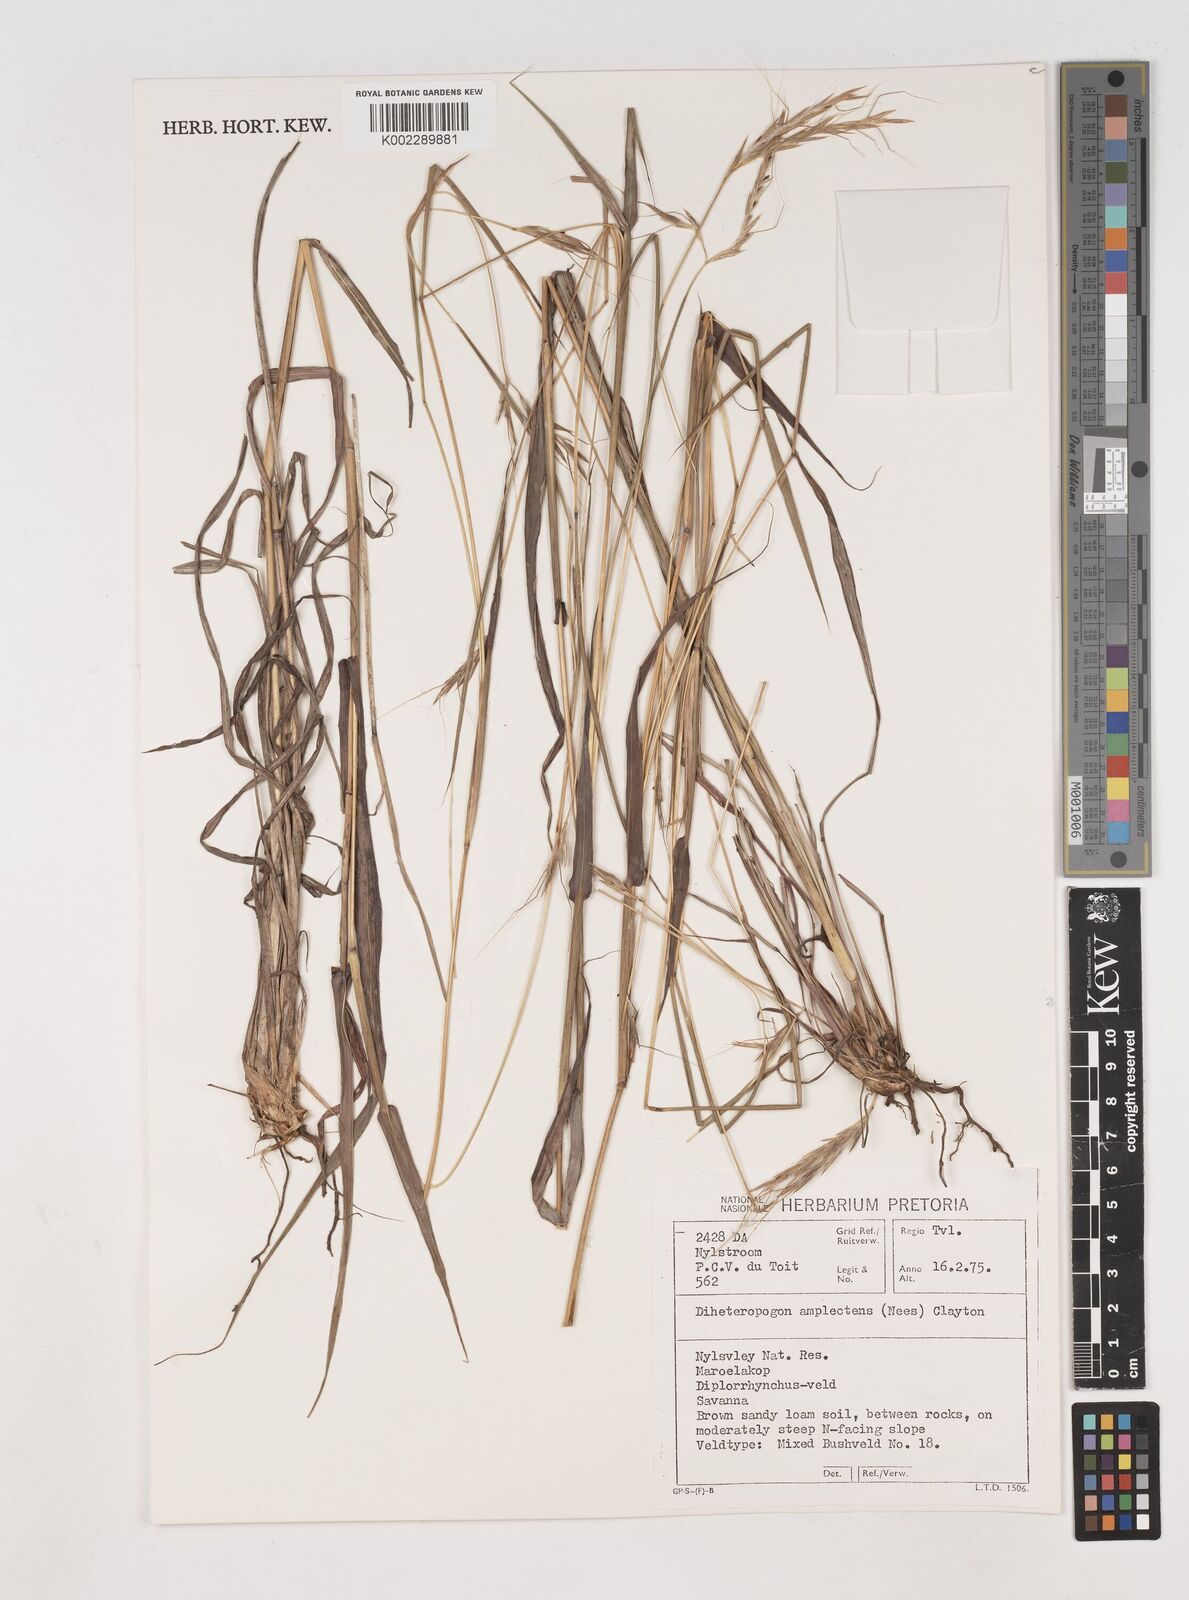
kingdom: Plantae
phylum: Tracheophyta
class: Liliopsida
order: Poales
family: Poaceae
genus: Diheteropogon
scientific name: Diheteropogon amplectens
